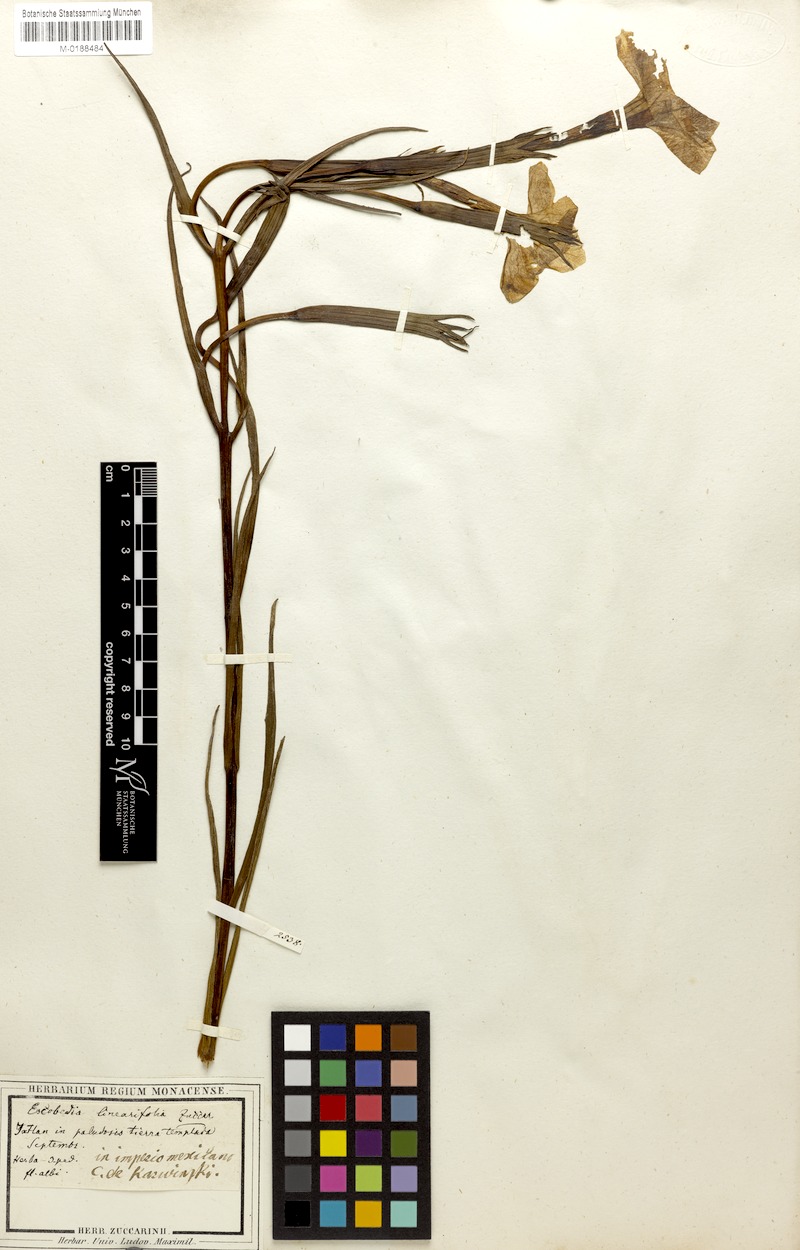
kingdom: Plantae
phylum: Tracheophyta
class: Magnoliopsida
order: Lamiales
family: Orobanchaceae
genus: Escobedia
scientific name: Escobedia laevis
